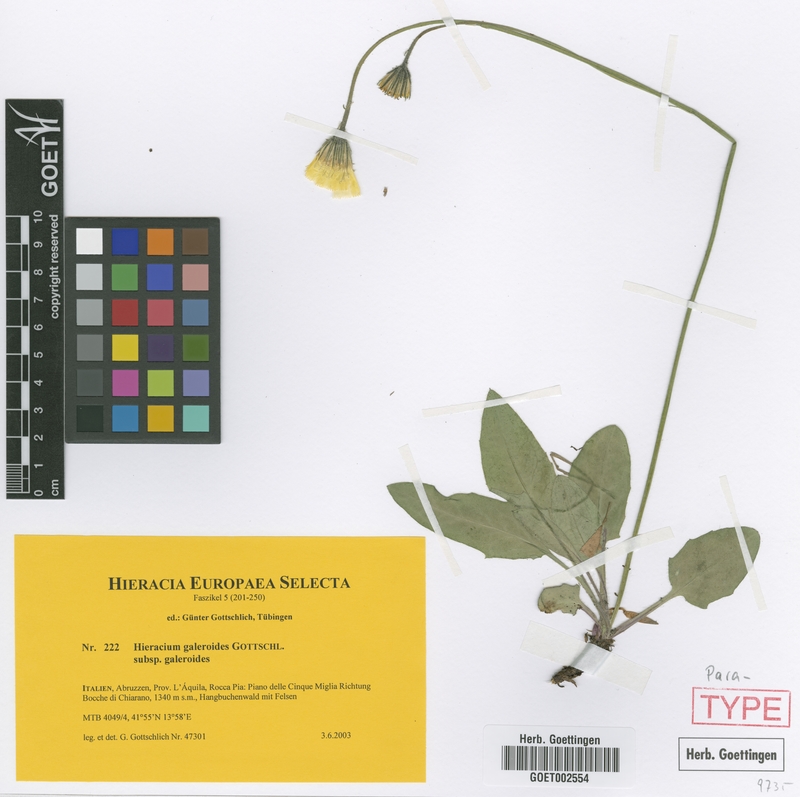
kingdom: Plantae
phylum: Tracheophyta
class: Magnoliopsida
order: Asterales
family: Asteraceae
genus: Hieracium
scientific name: Hieracium galeroides
